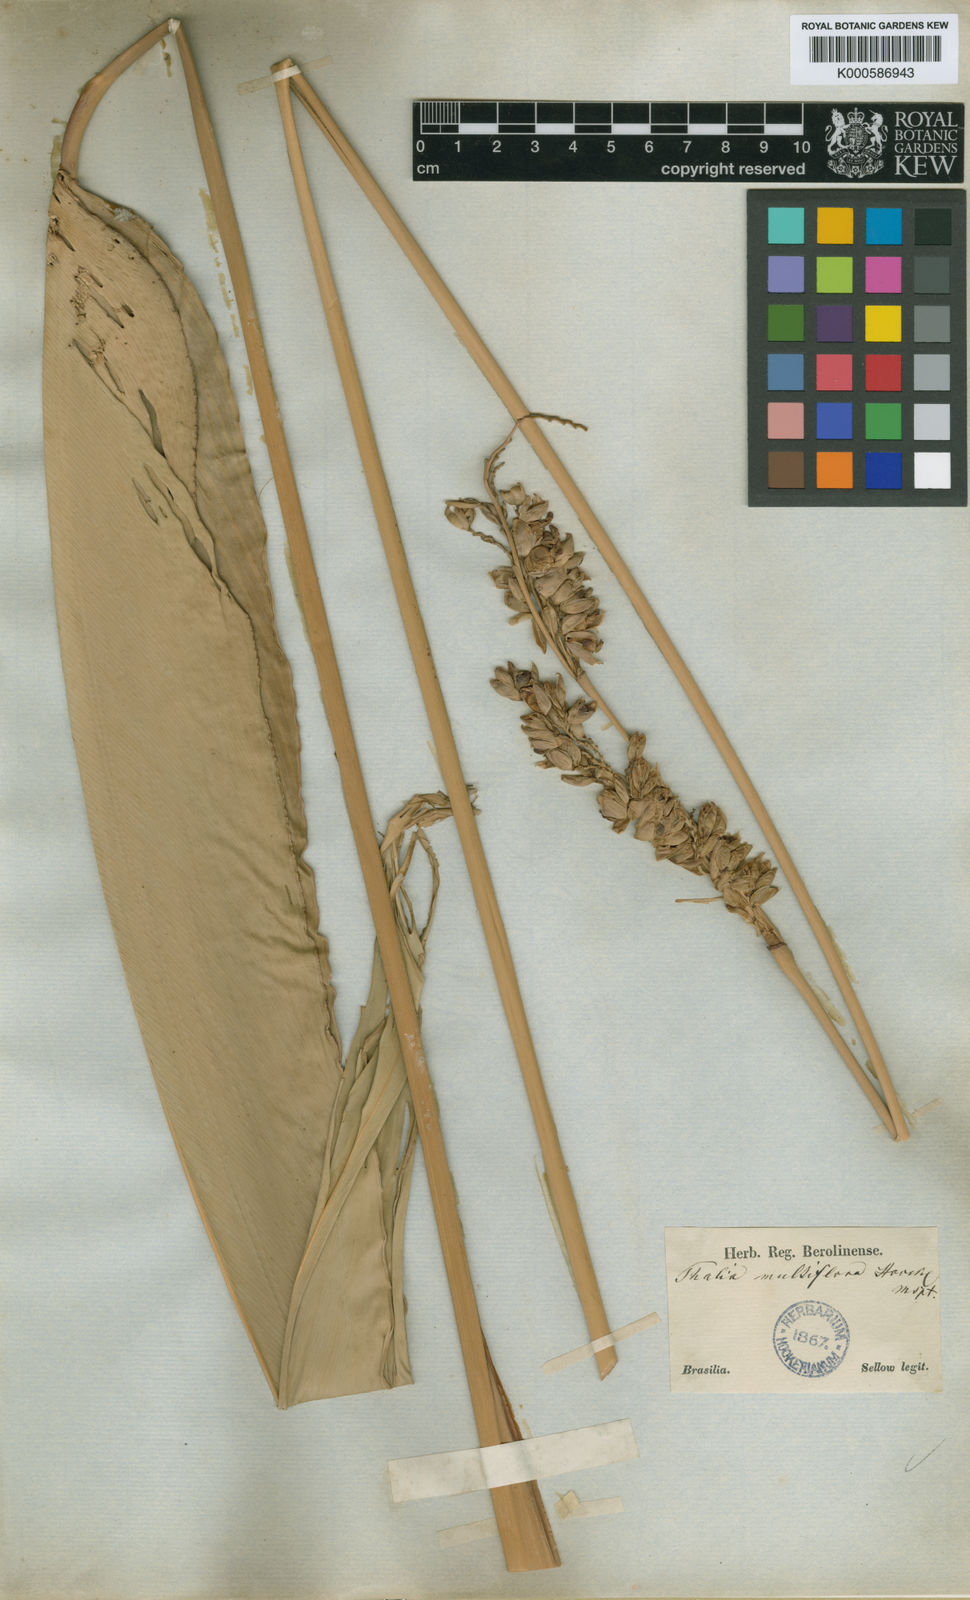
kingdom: Plantae
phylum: Tracheophyta
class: Liliopsida
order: Zingiberales
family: Marantaceae
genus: Thalia
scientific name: Thalia
